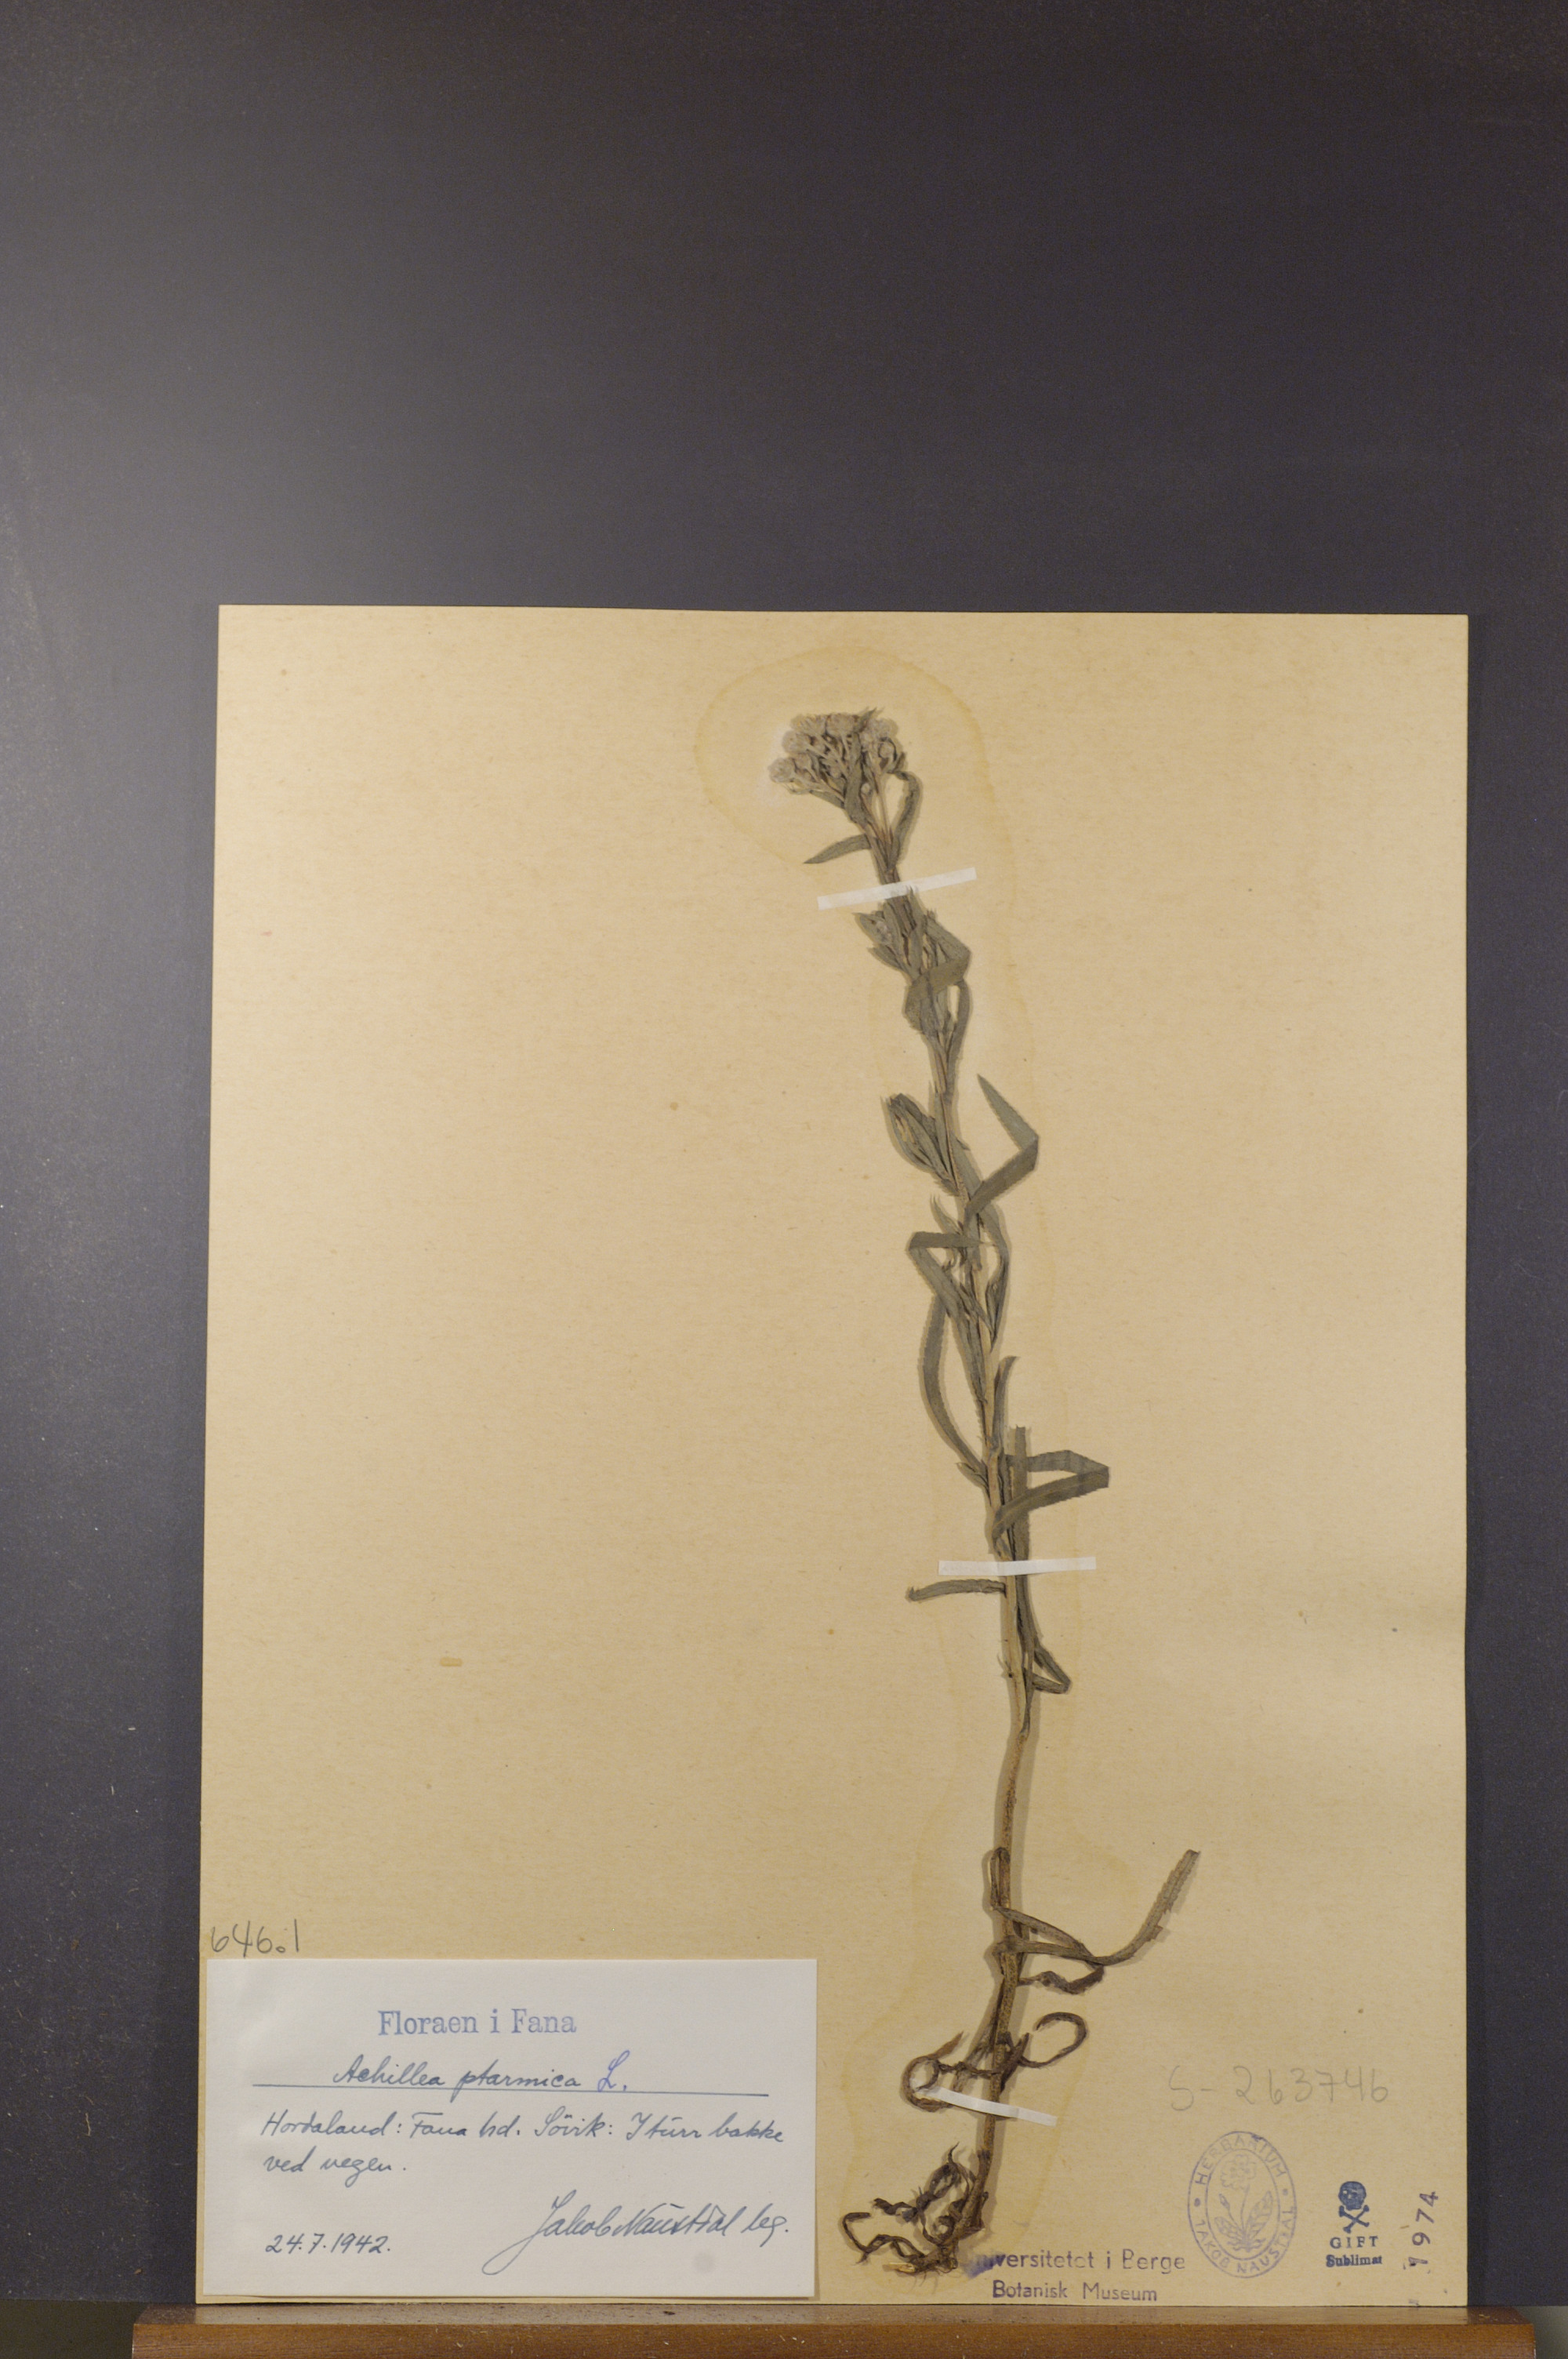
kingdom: Plantae
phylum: Tracheophyta
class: Magnoliopsida
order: Asterales
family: Asteraceae
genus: Achillea
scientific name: Achillea ptarmica
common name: Sneezeweed
